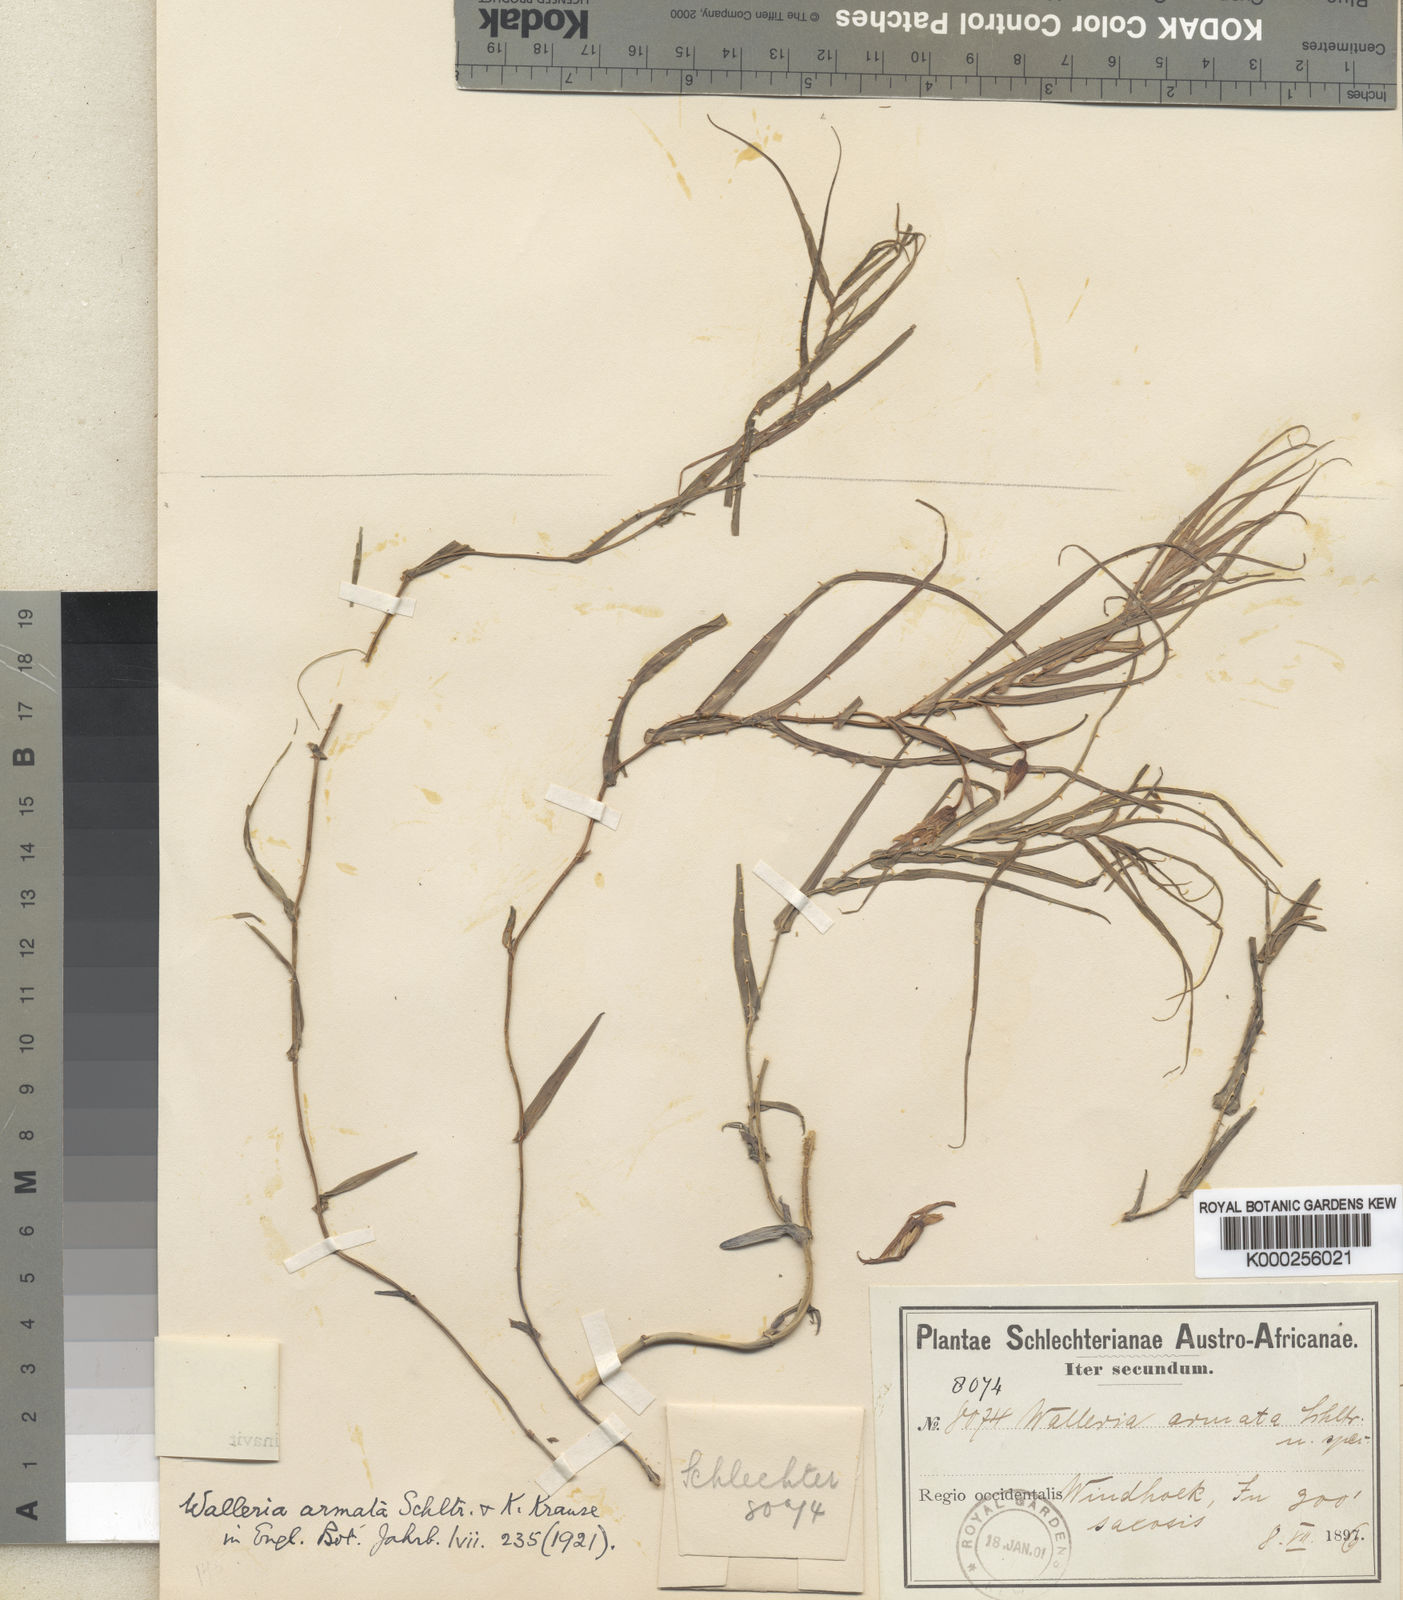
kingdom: Plantae
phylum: Tracheophyta
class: Liliopsida
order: Asparagales
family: Tecophilaeaceae
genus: Walleria
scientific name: Walleria gracilis
